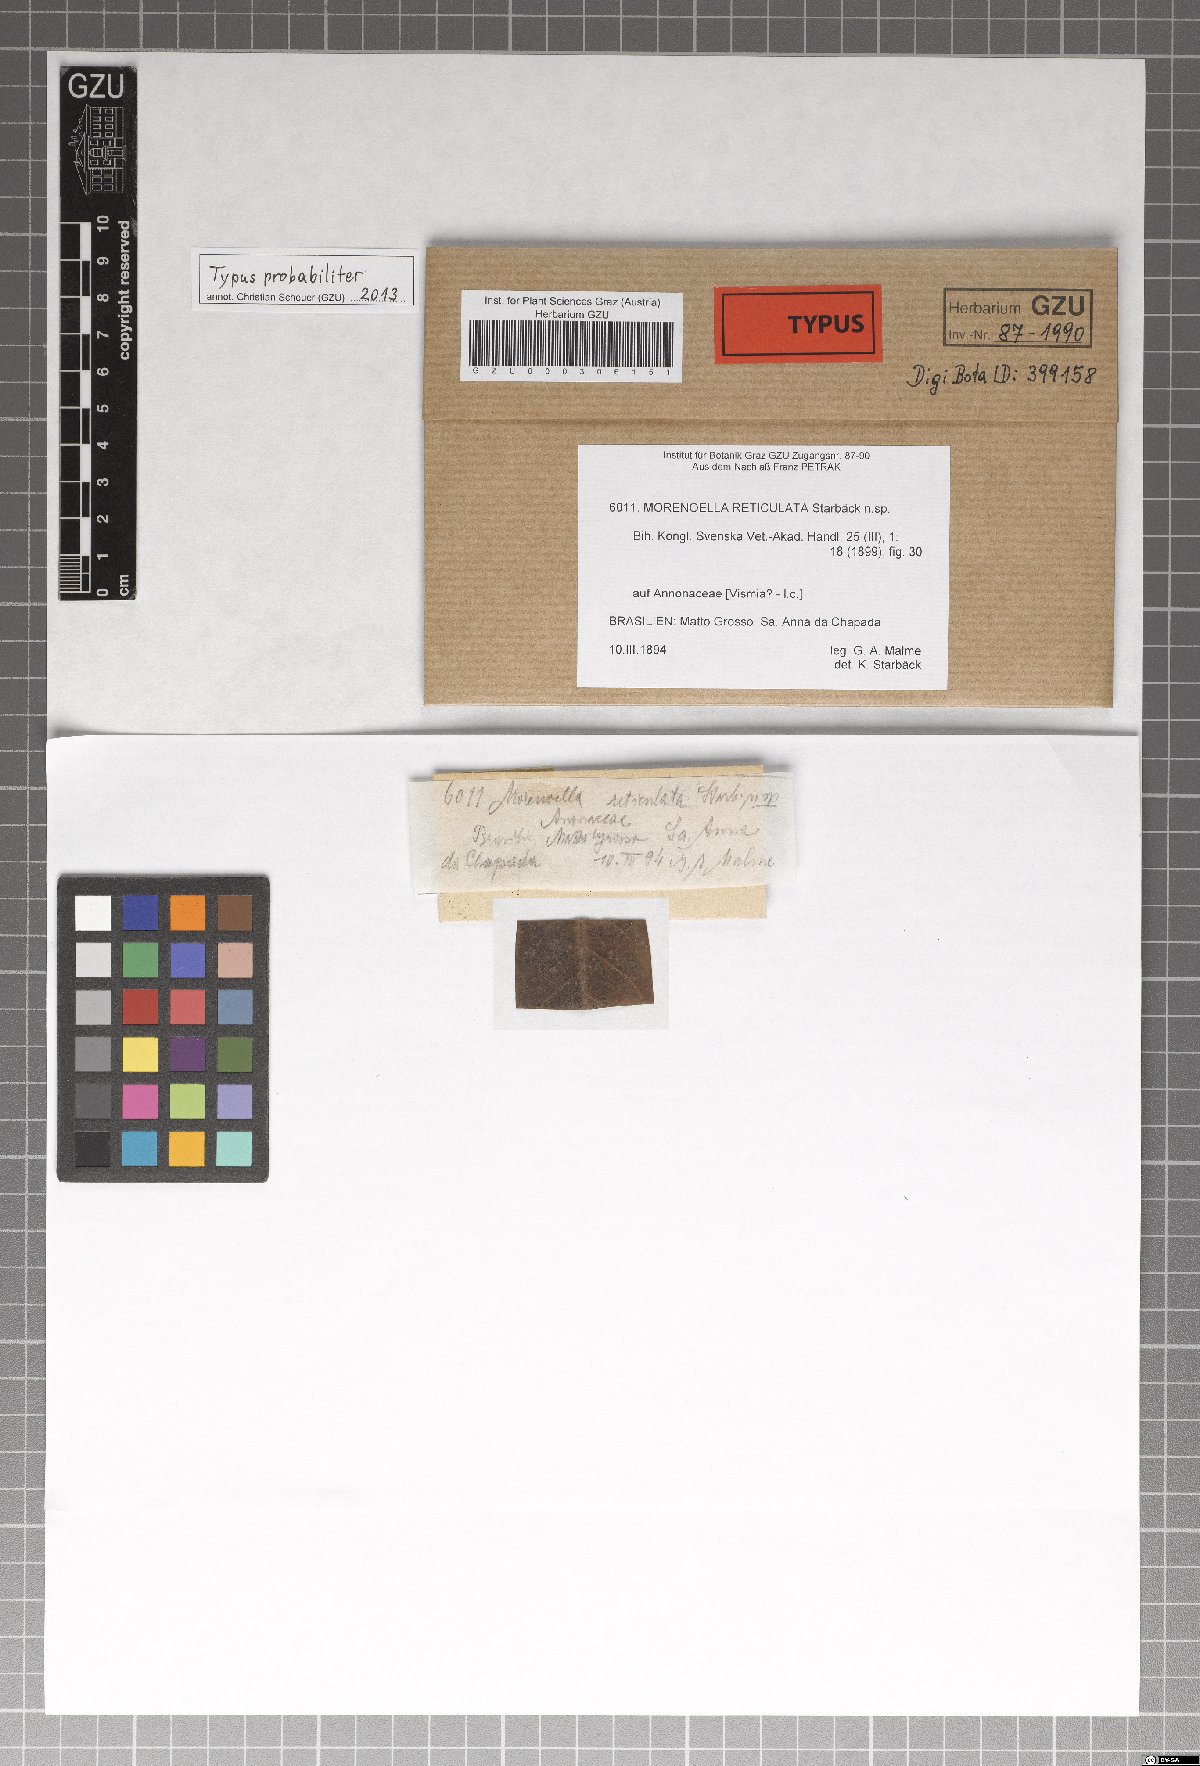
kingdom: Fungi
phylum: Ascomycota
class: Dothideomycetes
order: Asterinales
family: Asterinaceae
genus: Morenoella
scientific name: Morenoella
